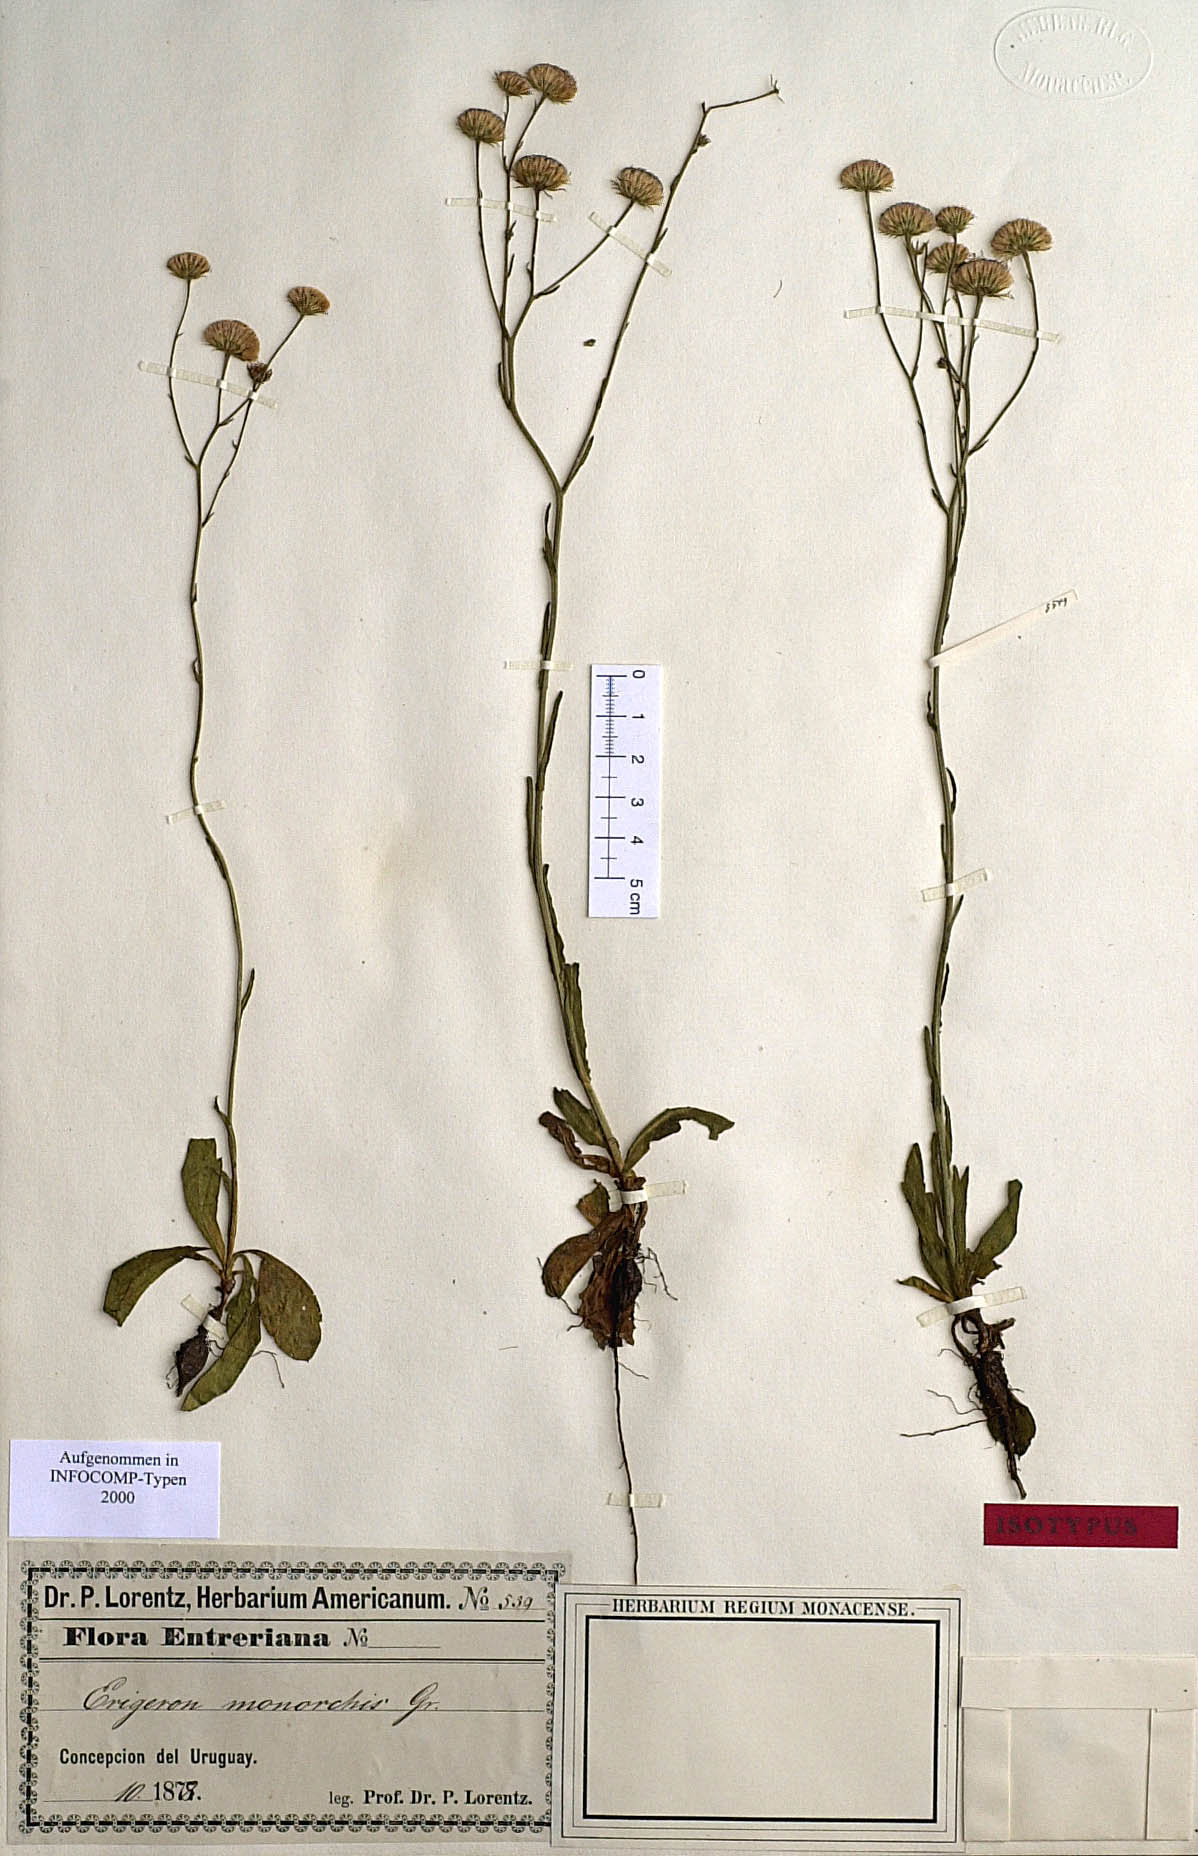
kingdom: Plantae
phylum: Tracheophyta
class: Magnoliopsida
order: Asterales
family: Asteraceae
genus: Erigeron
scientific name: Erigeron monorchis
